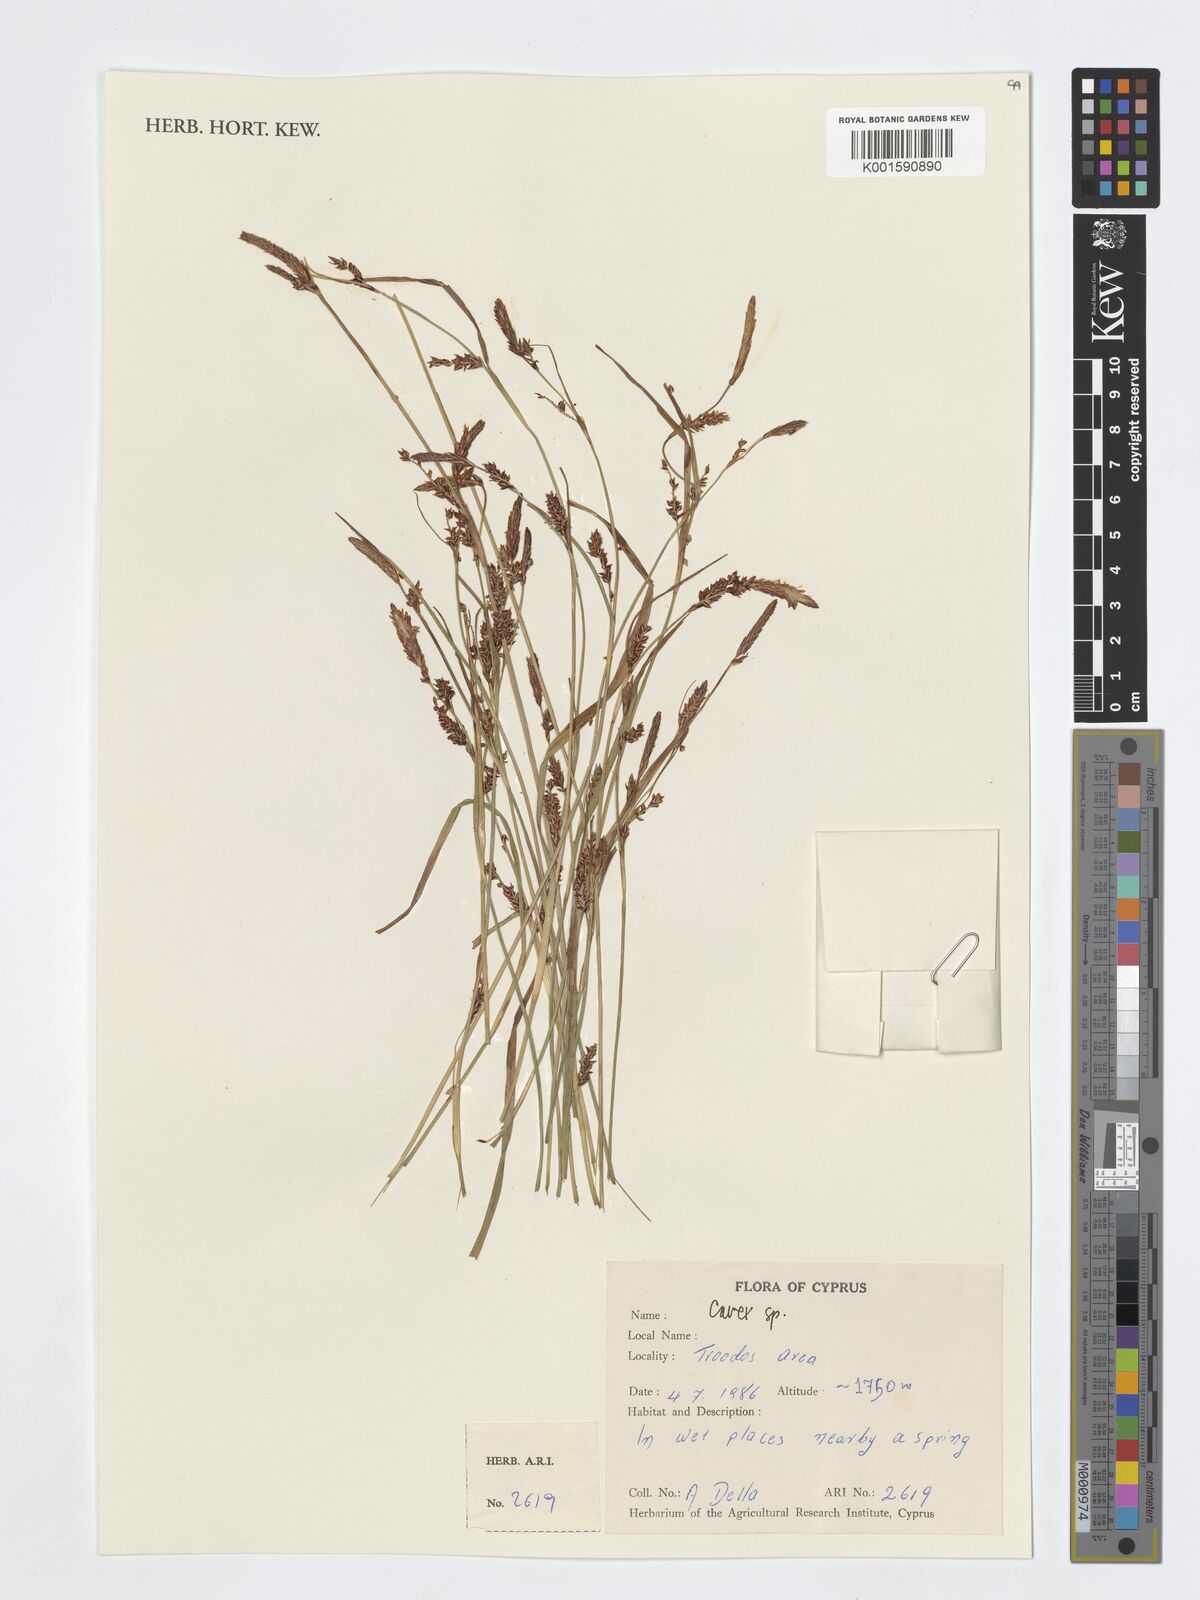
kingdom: Plantae
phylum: Tracheophyta
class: Liliopsida
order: Poales
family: Cyperaceae
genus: Carex
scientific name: Carex
